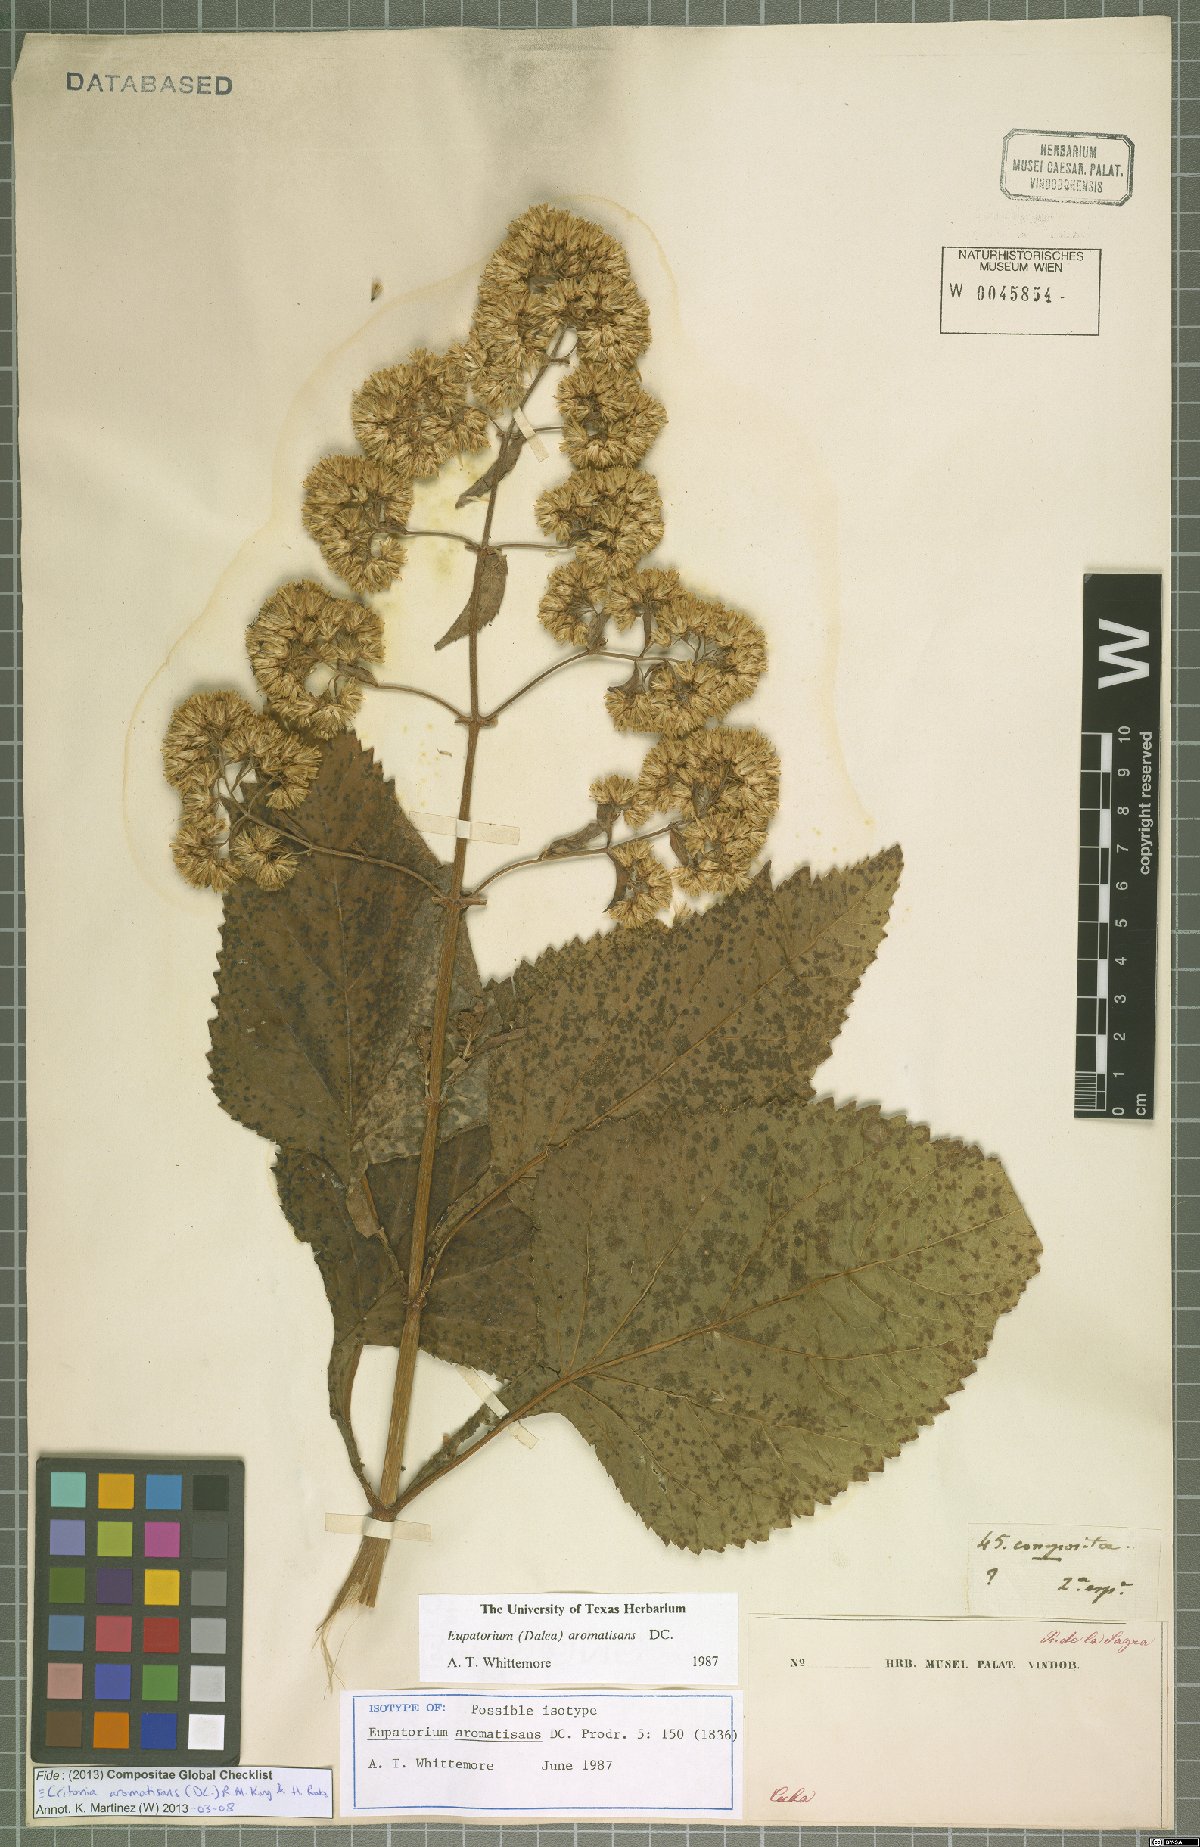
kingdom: Plantae
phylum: Tracheophyta
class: Magnoliopsida
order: Asterales
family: Asteraceae
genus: Critonia
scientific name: Critonia aromatisans
